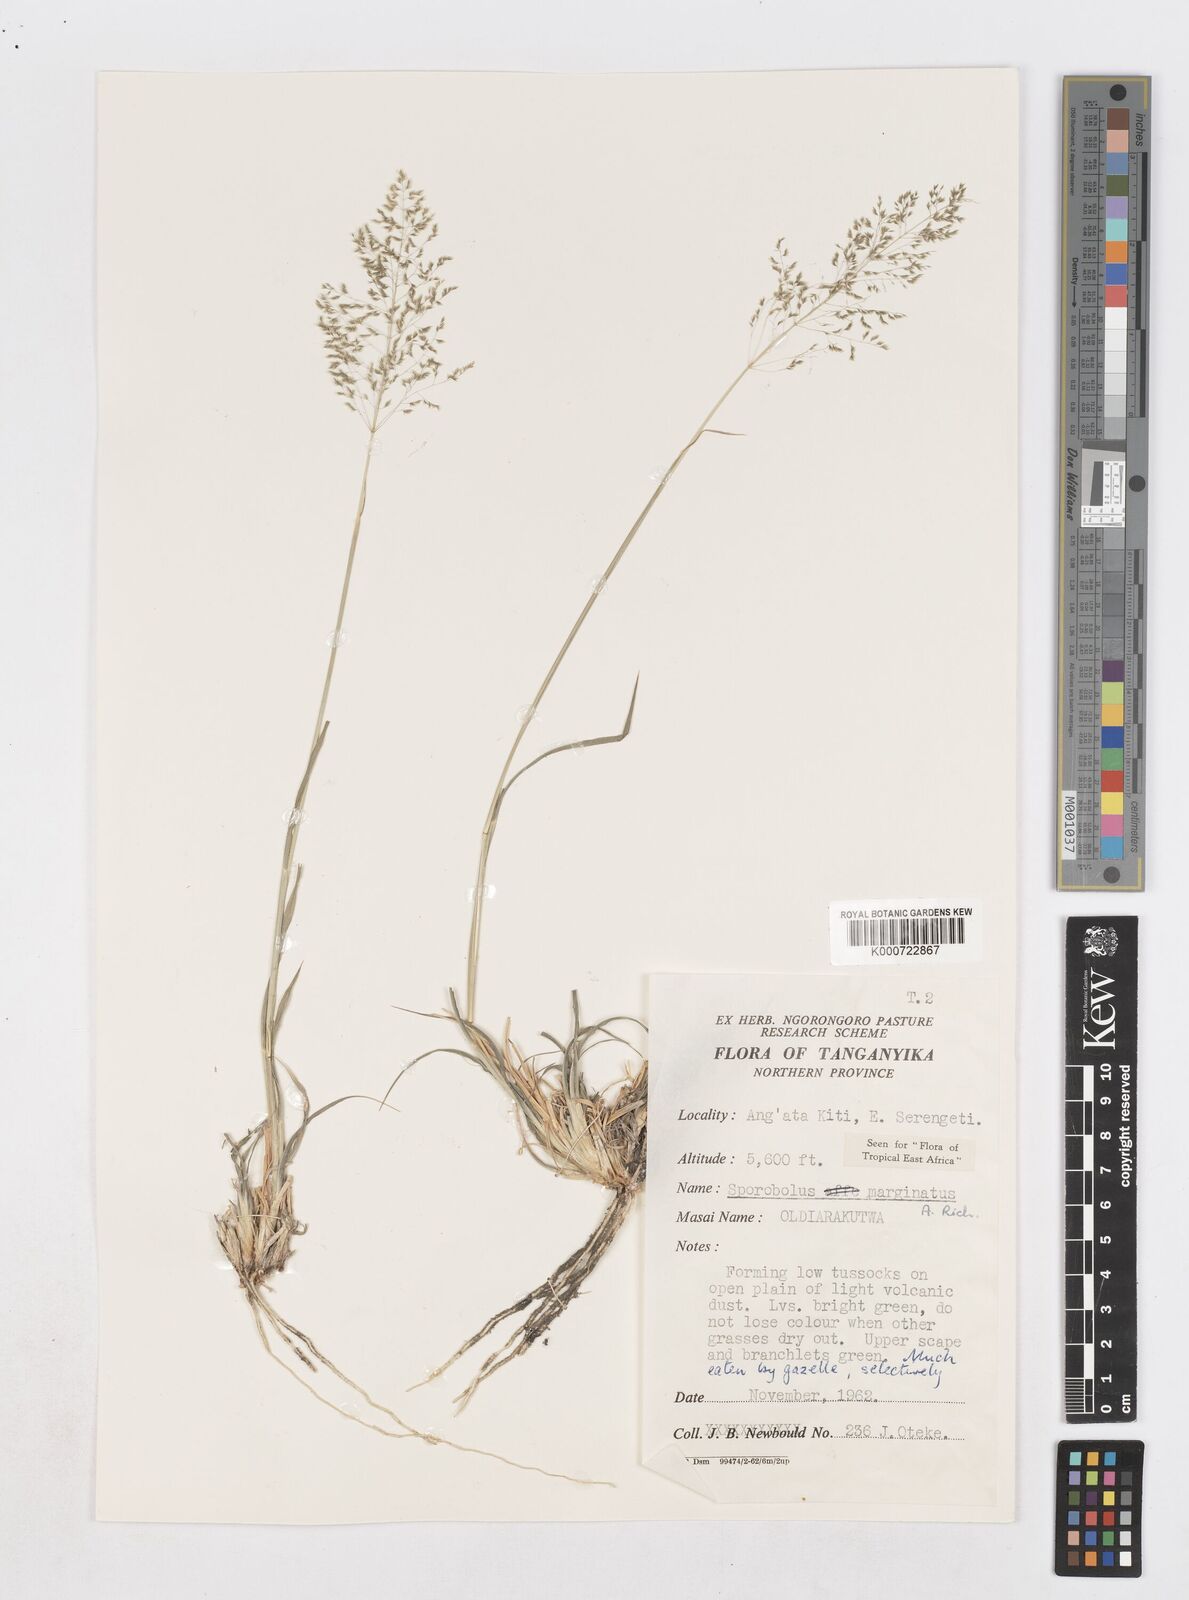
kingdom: Plantae
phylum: Tracheophyta
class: Liliopsida
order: Poales
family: Poaceae
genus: Sporobolus
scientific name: Sporobolus ioclados
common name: Pan dropseed
